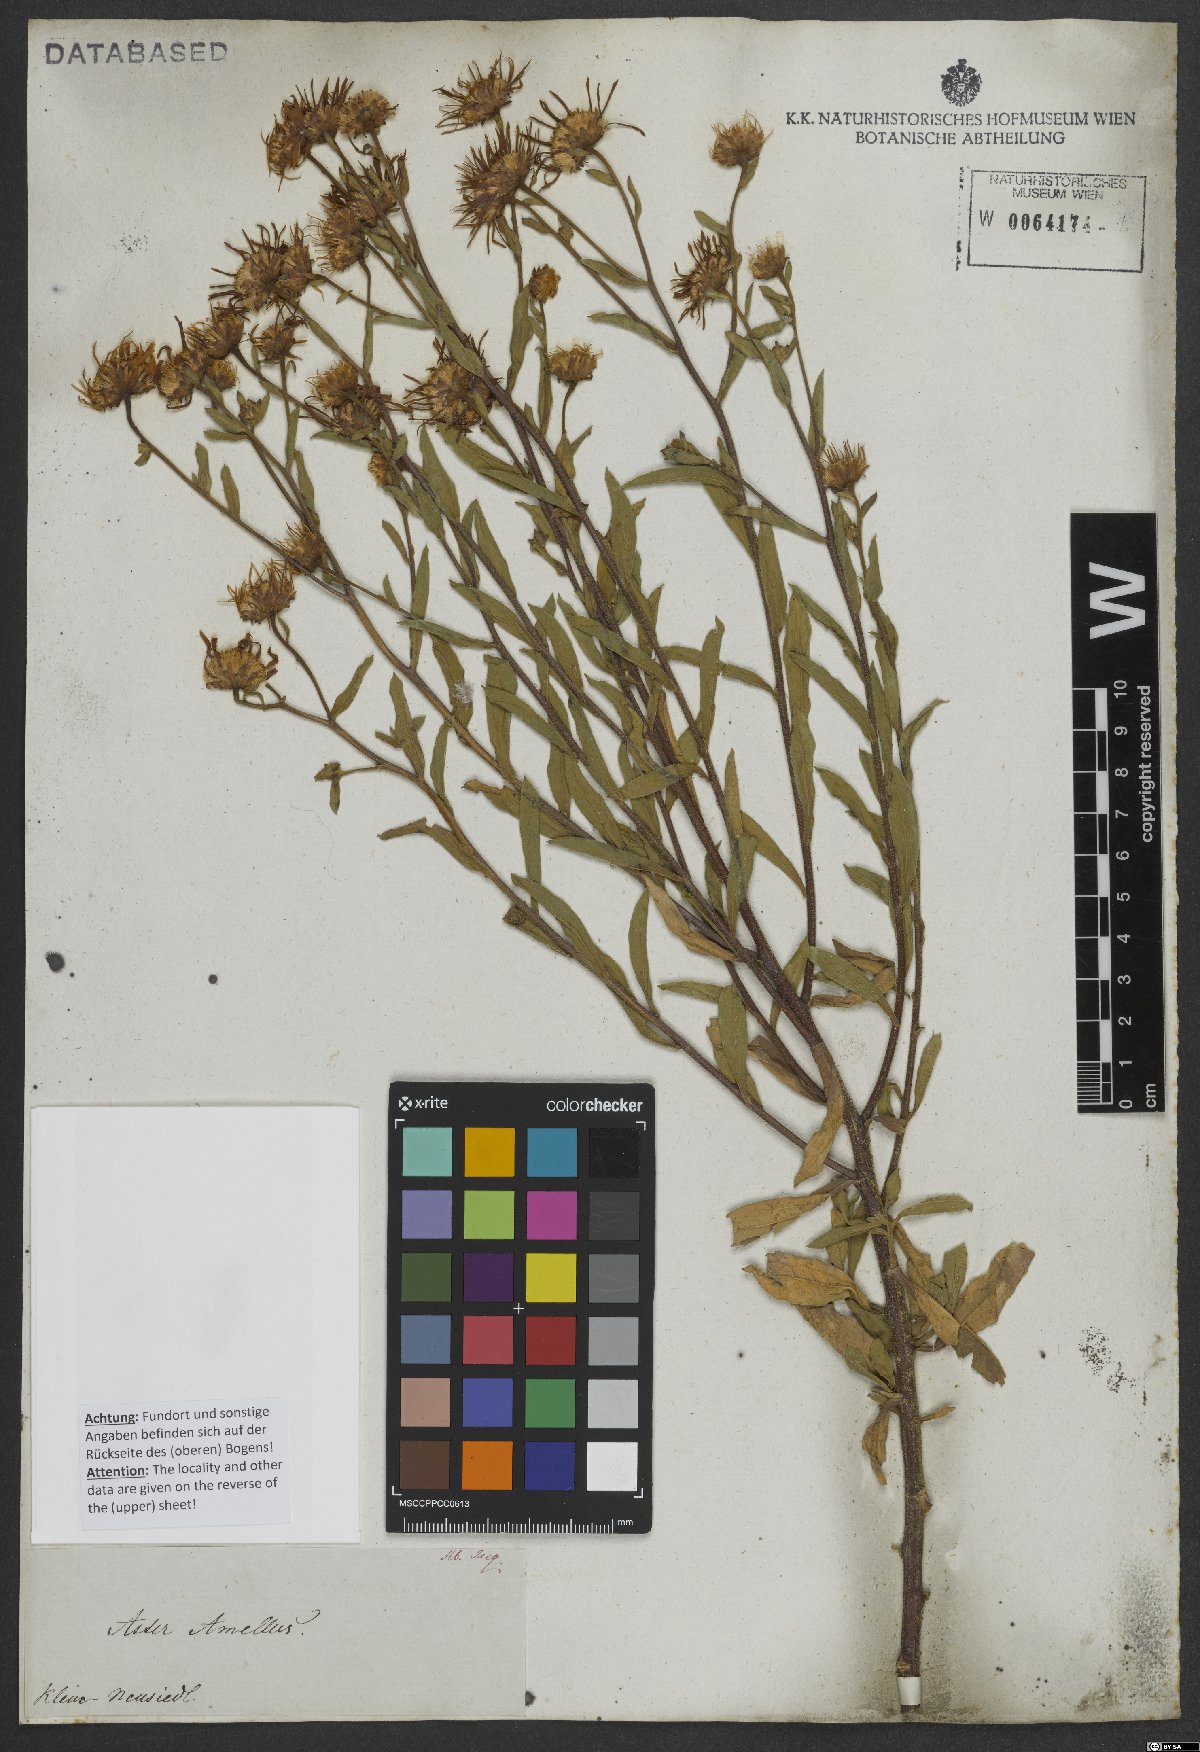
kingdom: Plantae
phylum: Tracheophyta
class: Magnoliopsida
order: Asterales
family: Asteraceae
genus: Aster
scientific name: Aster amellus
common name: European michaelmas daisy
